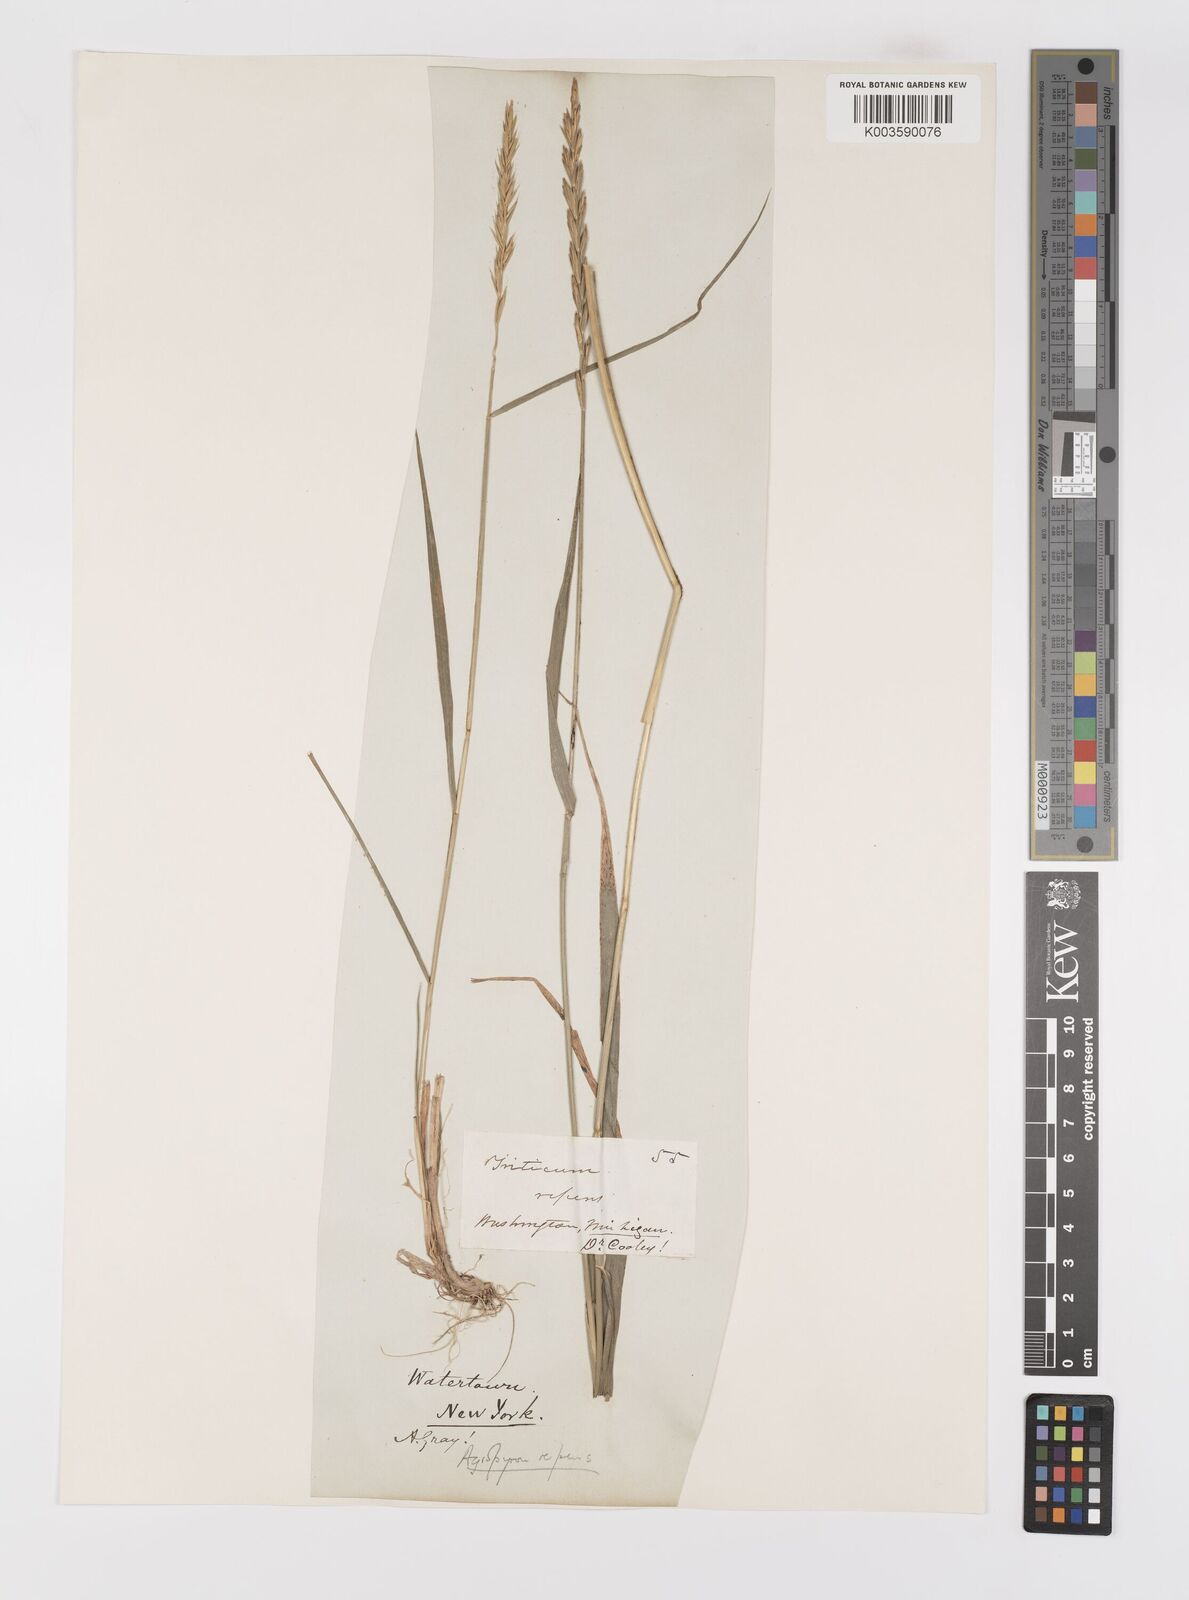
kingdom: Plantae
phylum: Tracheophyta
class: Liliopsida
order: Poales
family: Poaceae
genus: Elymus
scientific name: Elymus repens
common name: Quackgrass
